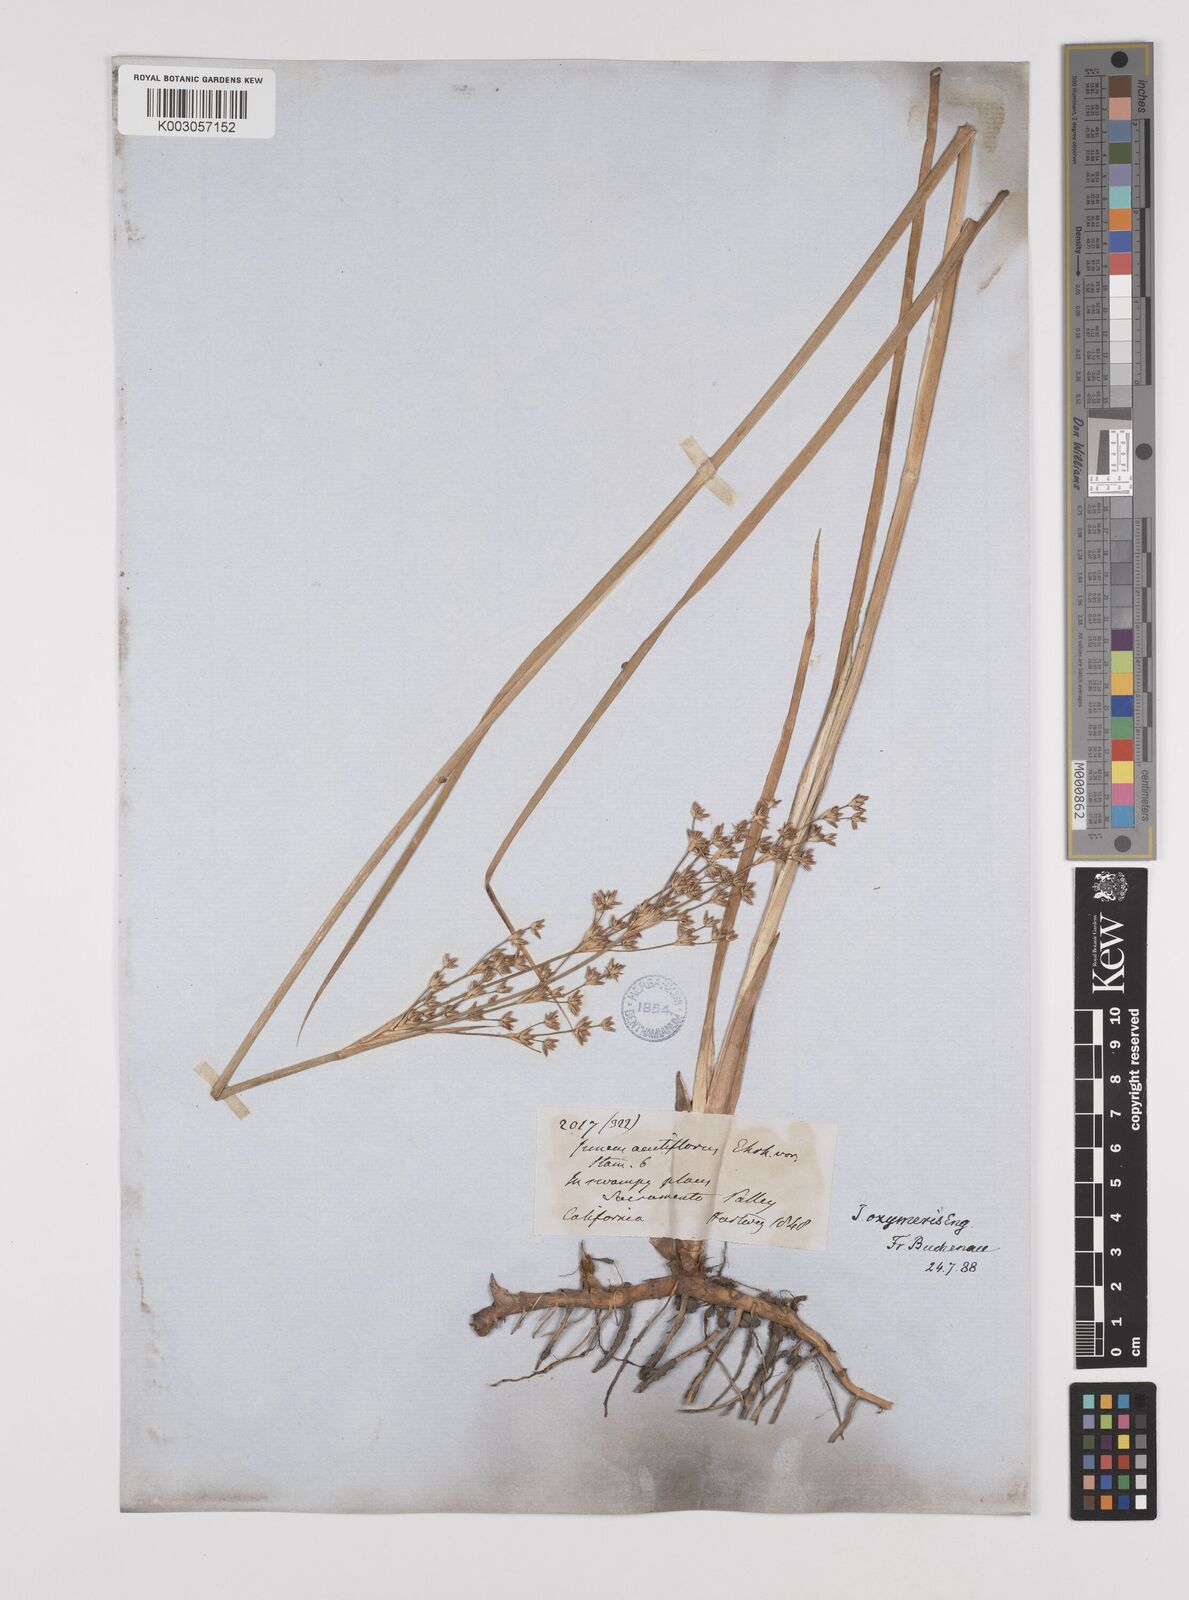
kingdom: Plantae
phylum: Tracheophyta
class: Liliopsida
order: Poales
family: Juncaceae
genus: Juncus
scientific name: Juncus oxymeris
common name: Pointed rush
